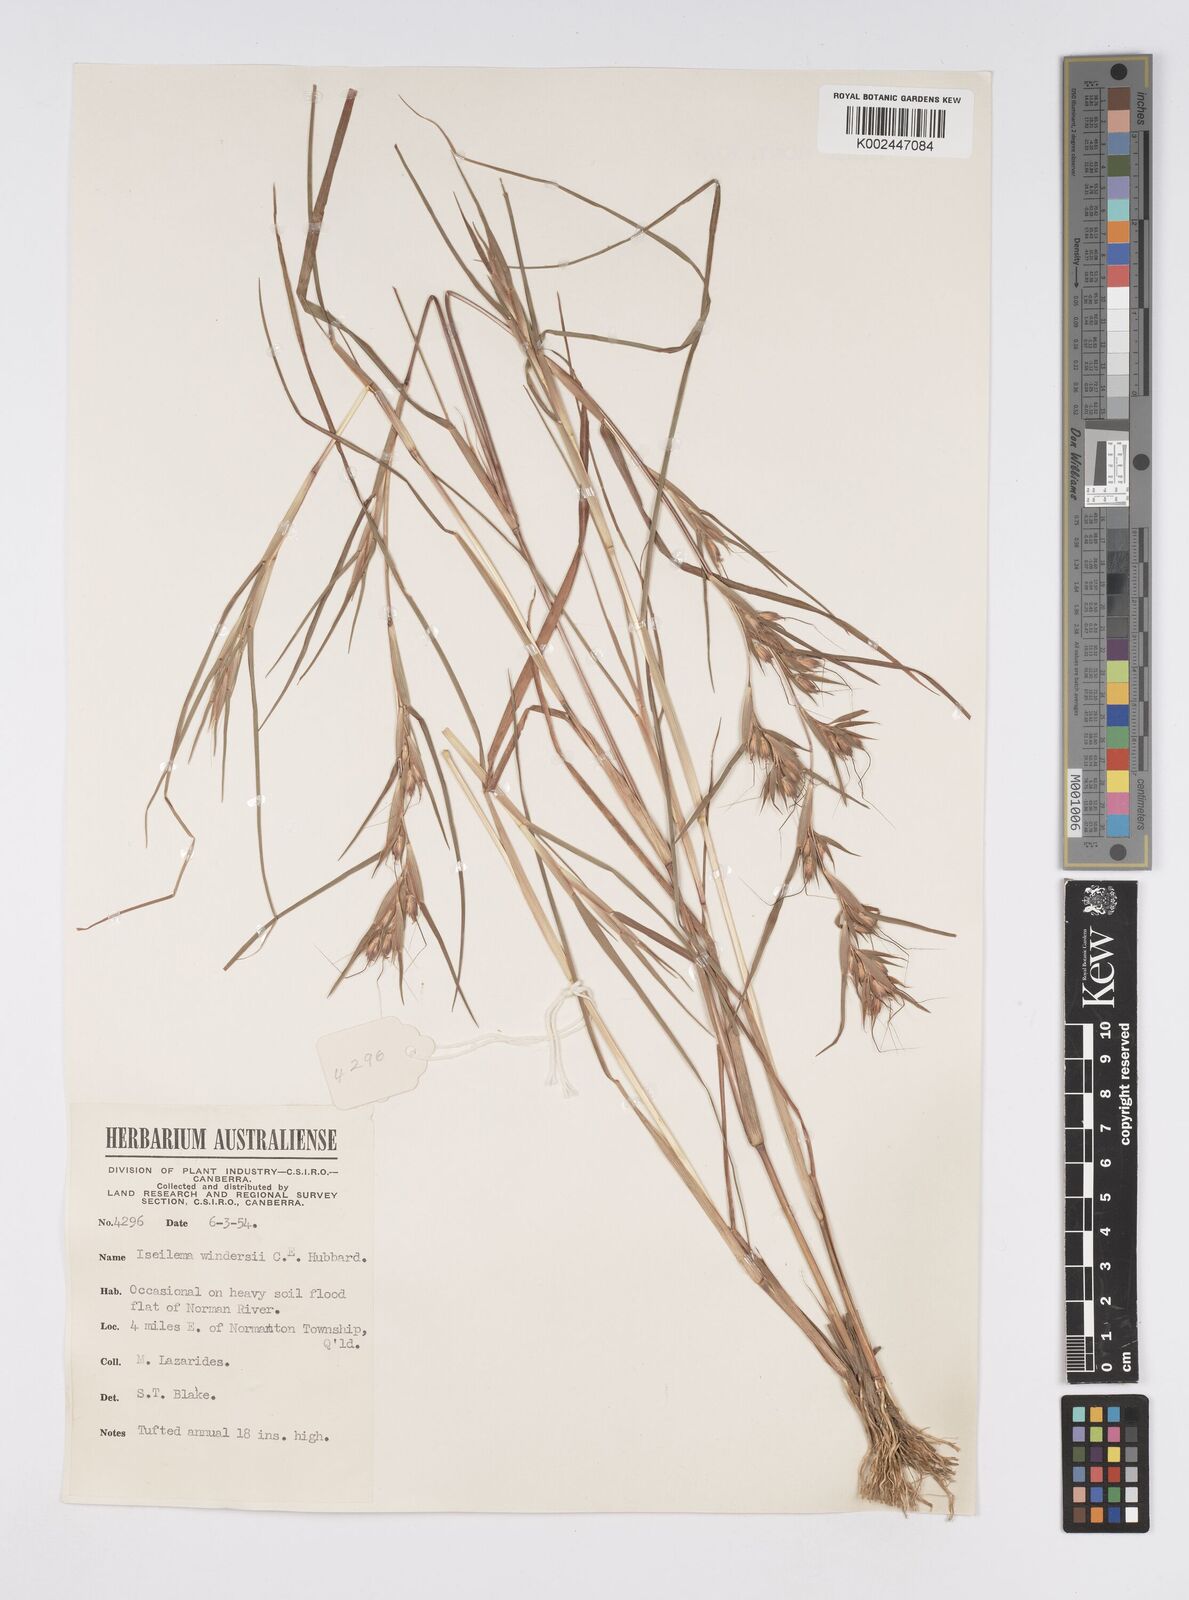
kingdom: Plantae
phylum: Tracheophyta
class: Liliopsida
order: Poales
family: Poaceae
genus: Iseilema
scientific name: Iseilema windersii
